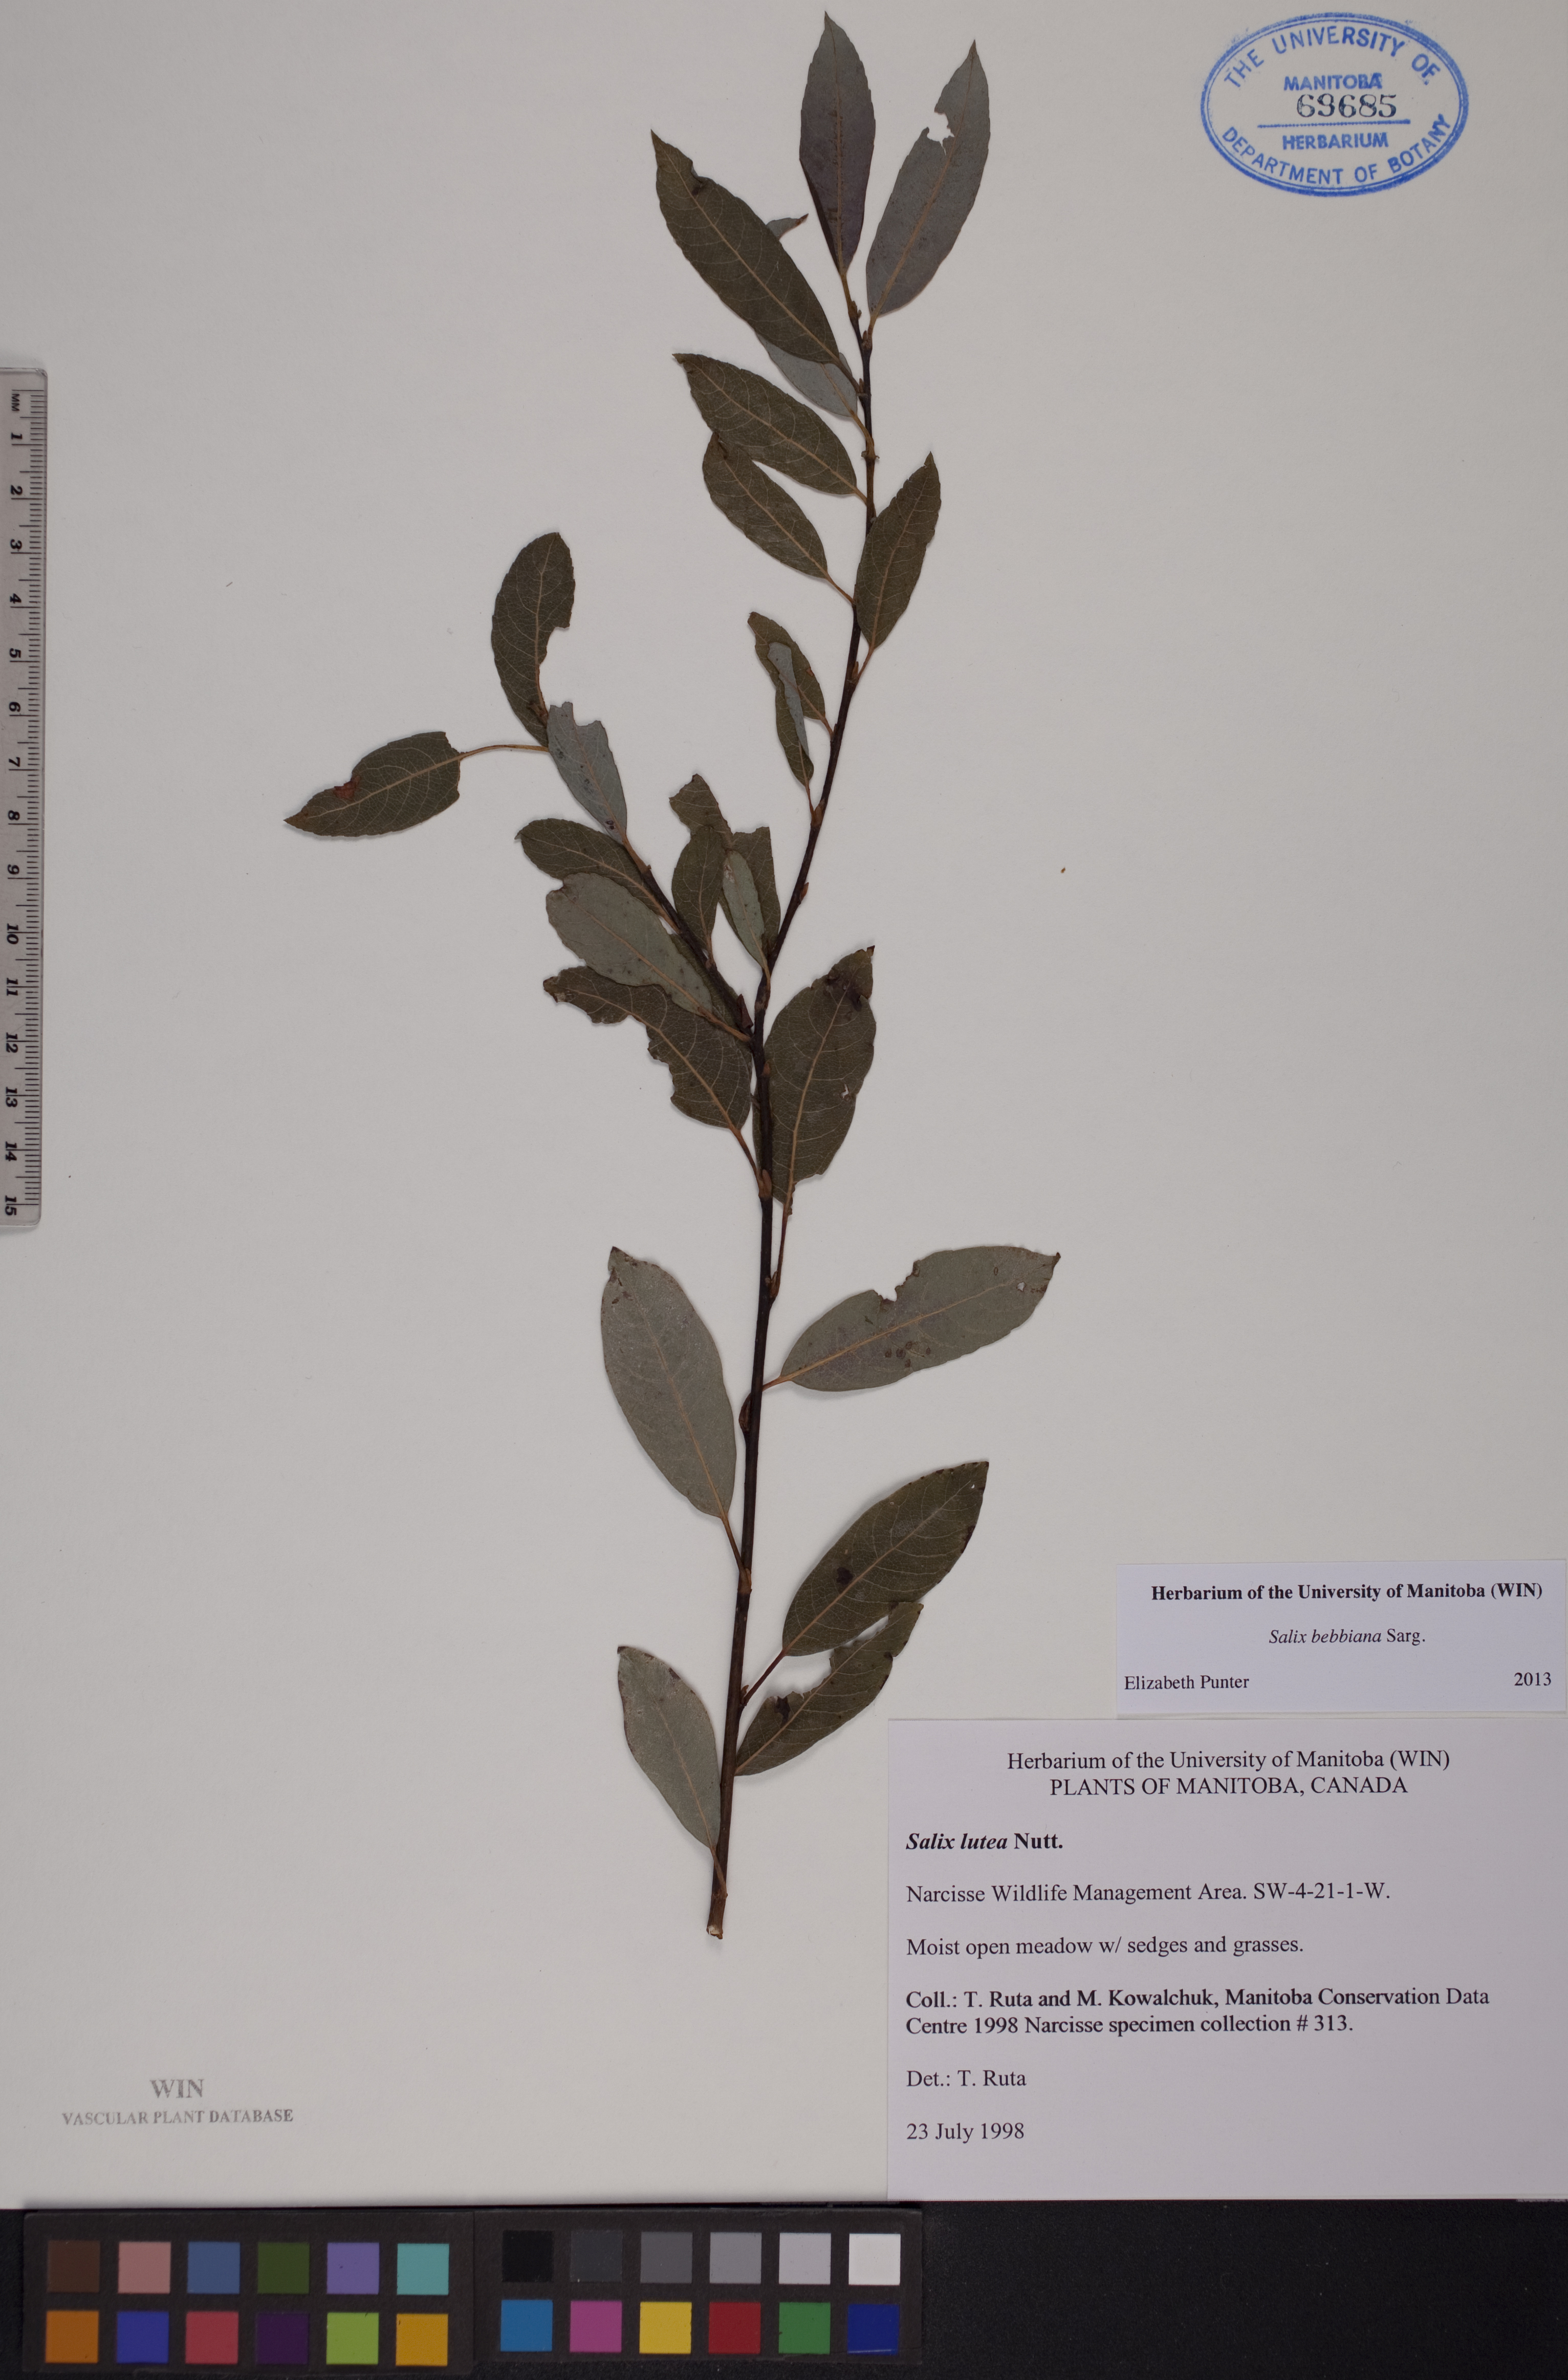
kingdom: Plantae
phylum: Tracheophyta
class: Magnoliopsida
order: Malpighiales
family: Salicaceae
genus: Salix
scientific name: Salix bebbiana
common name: Bebb's willow
